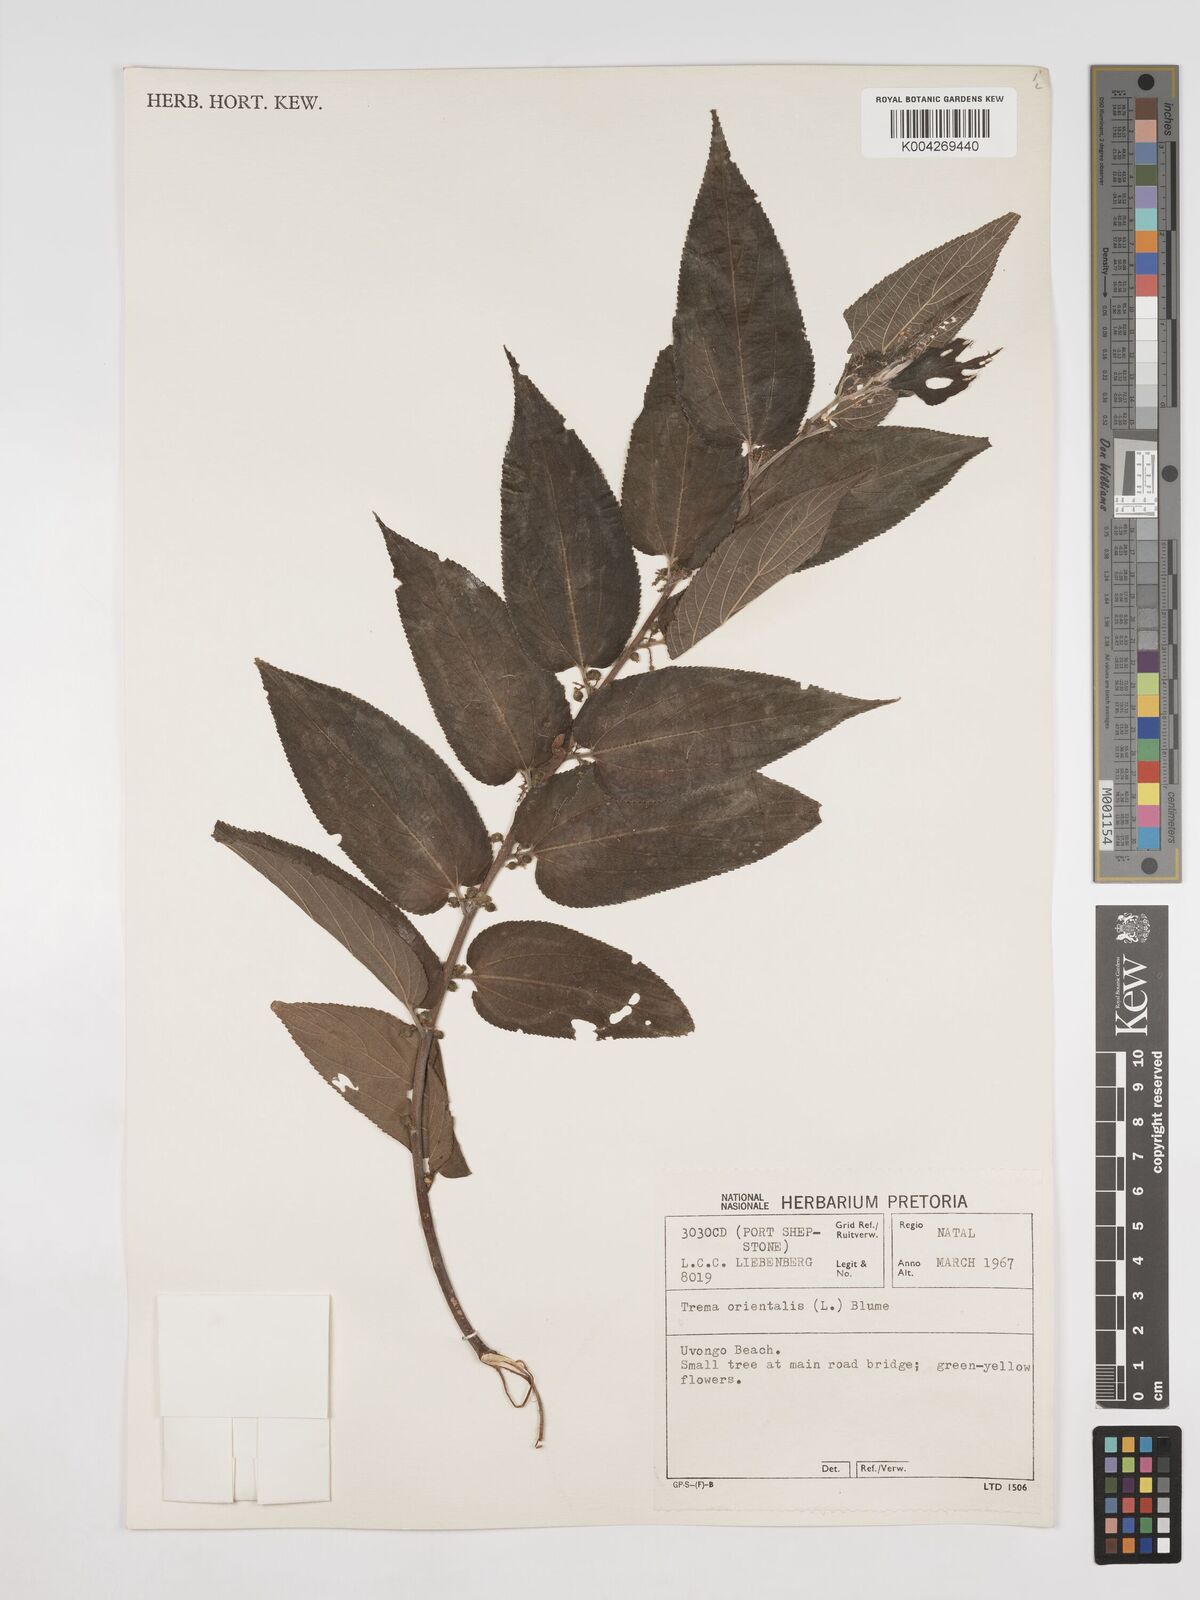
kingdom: Plantae
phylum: Tracheophyta
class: Magnoliopsida
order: Rosales
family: Cannabaceae
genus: Trema
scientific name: Trema orientale
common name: Indian charcoal tree
